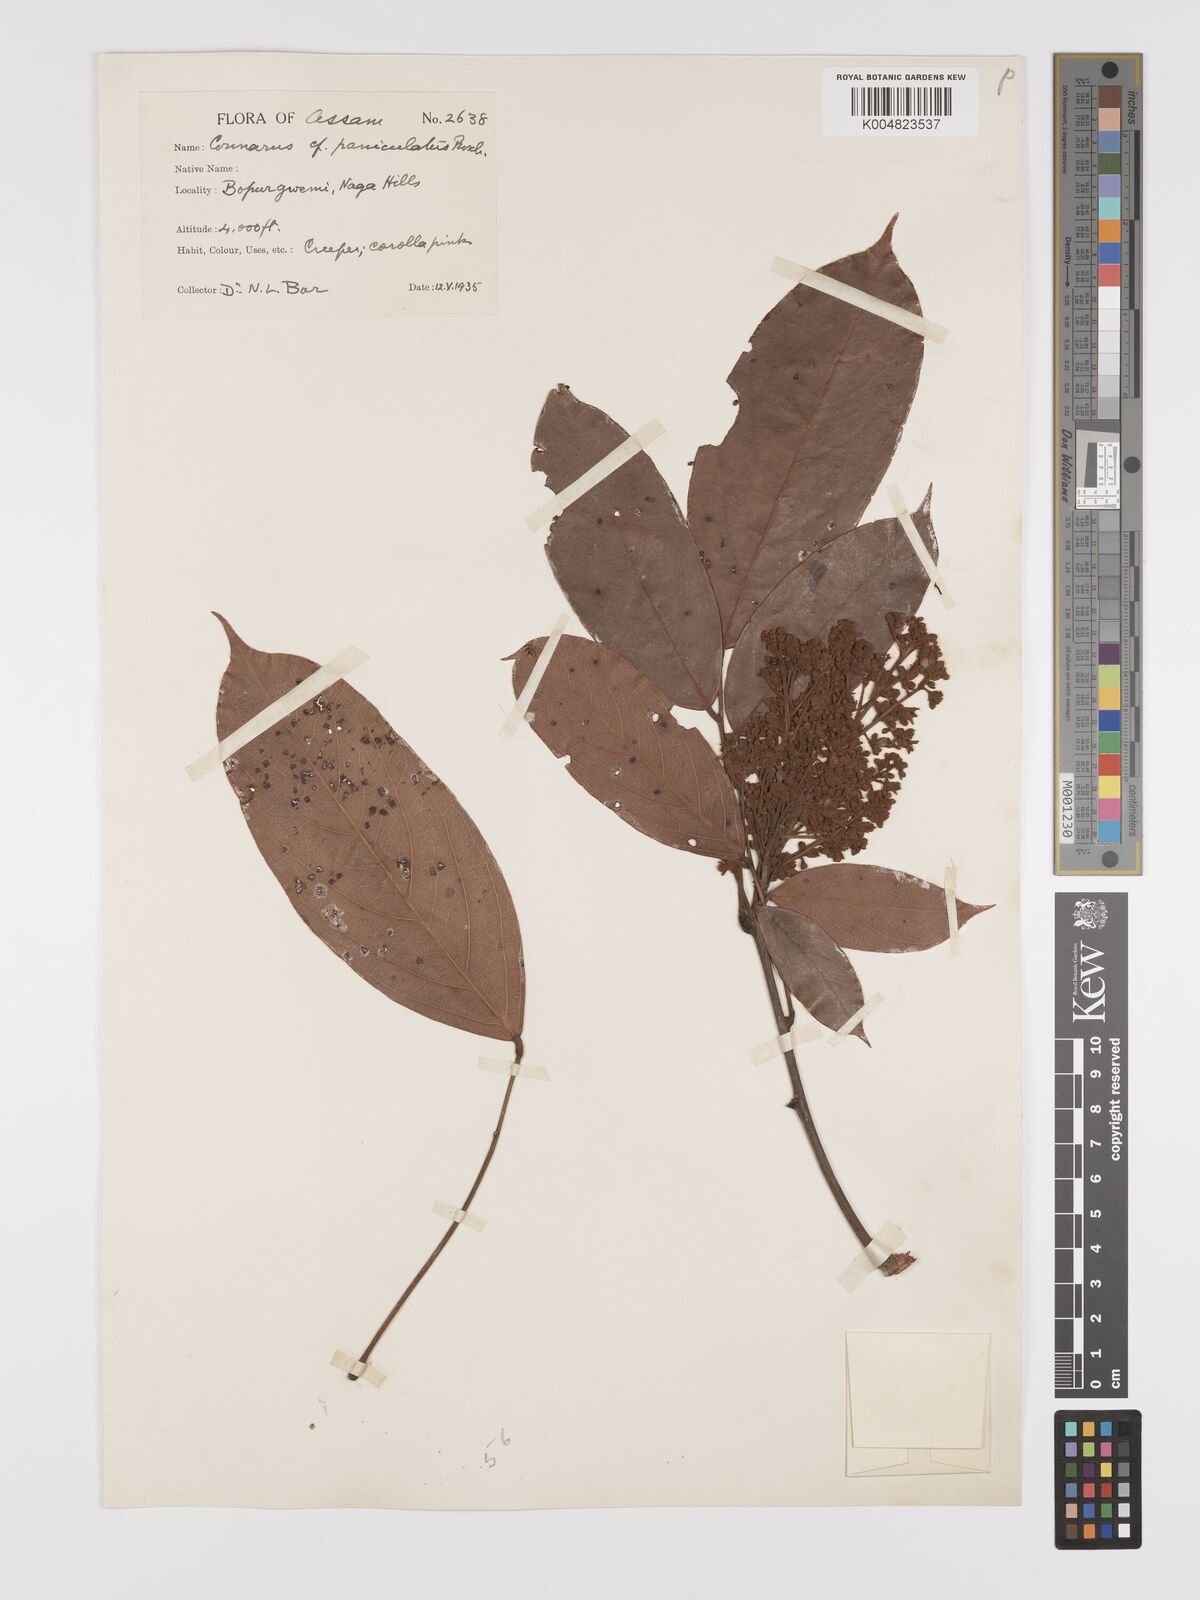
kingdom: Plantae
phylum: Tracheophyta
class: Magnoliopsida
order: Oxalidales
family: Connaraceae
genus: Connarus
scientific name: Connarus paniculatus
